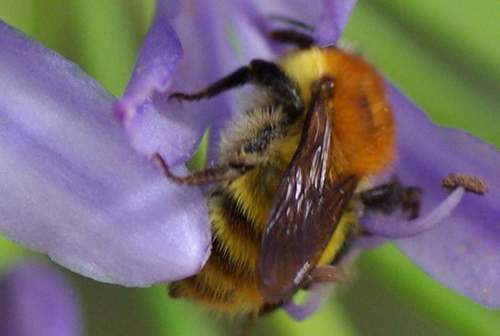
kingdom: Animalia
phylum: Arthropoda
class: Insecta
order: Hymenoptera
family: Apidae
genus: Bombus
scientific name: Bombus pascuorum
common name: Common carder bee
